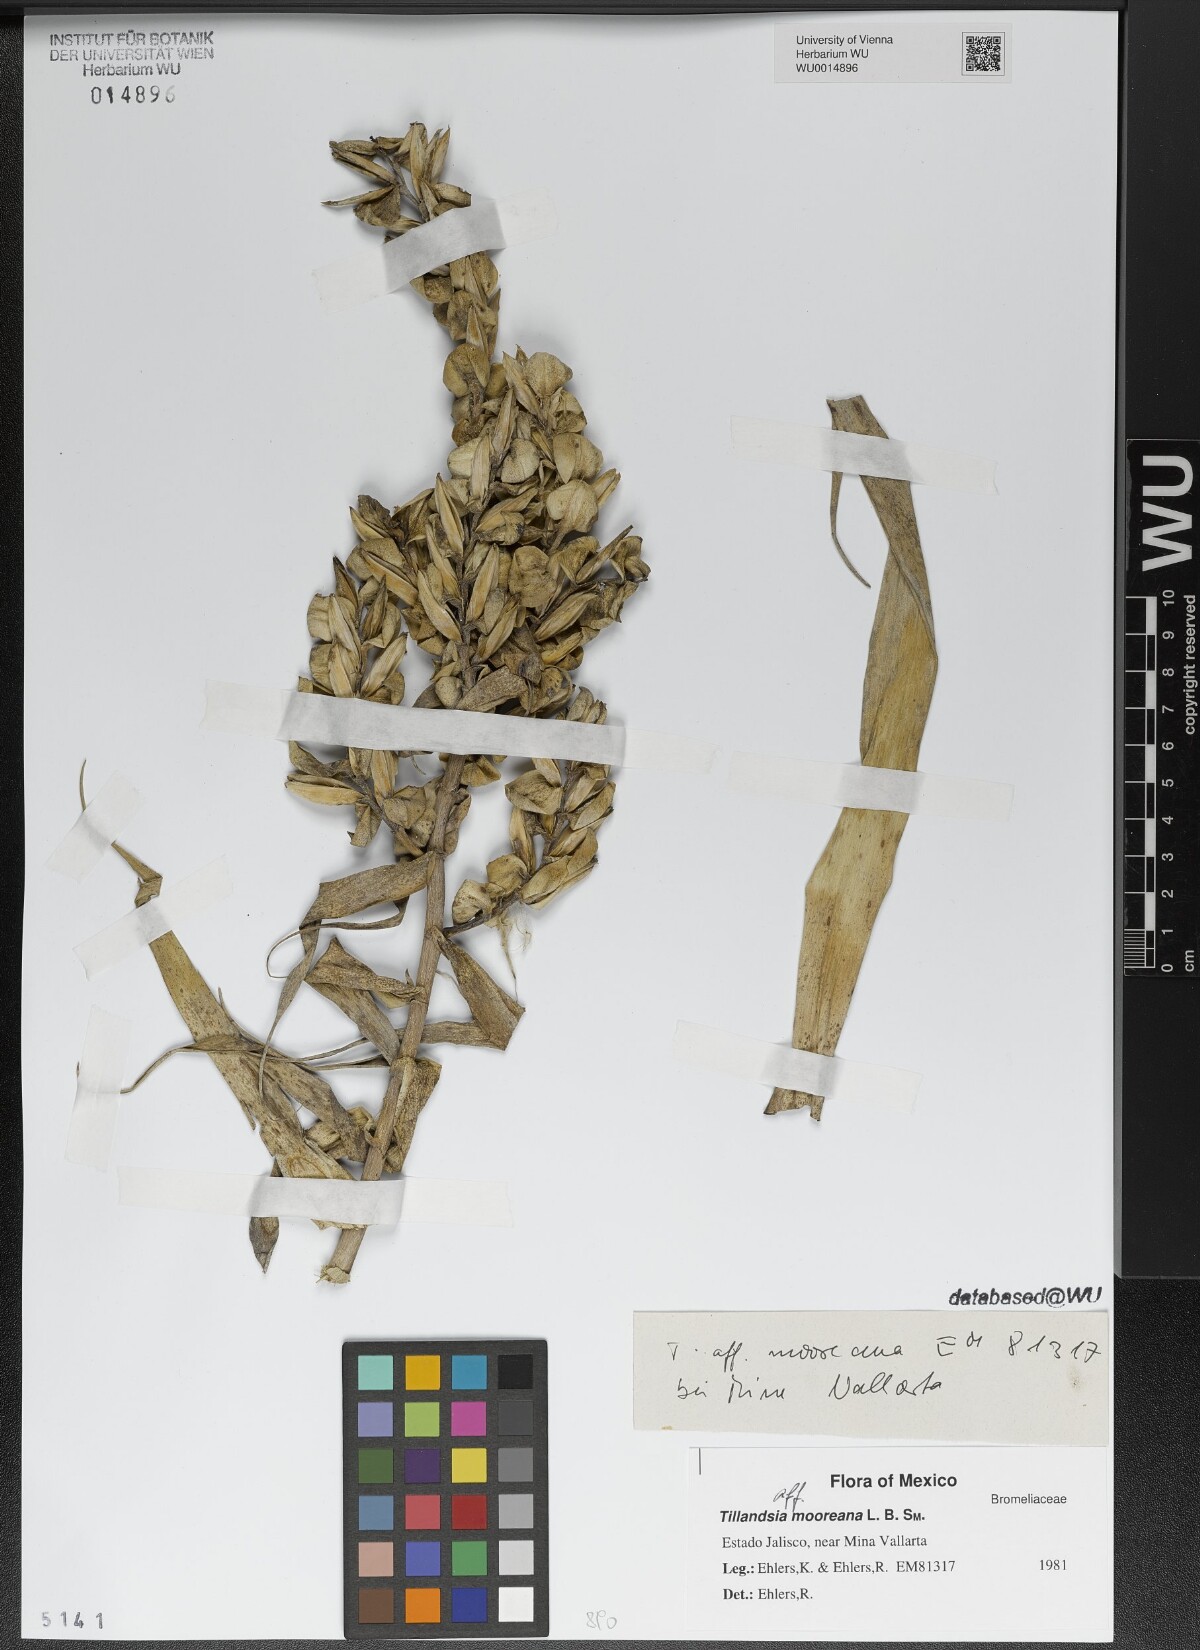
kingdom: Plantae
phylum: Tracheophyta
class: Liliopsida
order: Poales
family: Bromeliaceae
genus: Tillandsia
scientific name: Tillandsia mooreana
